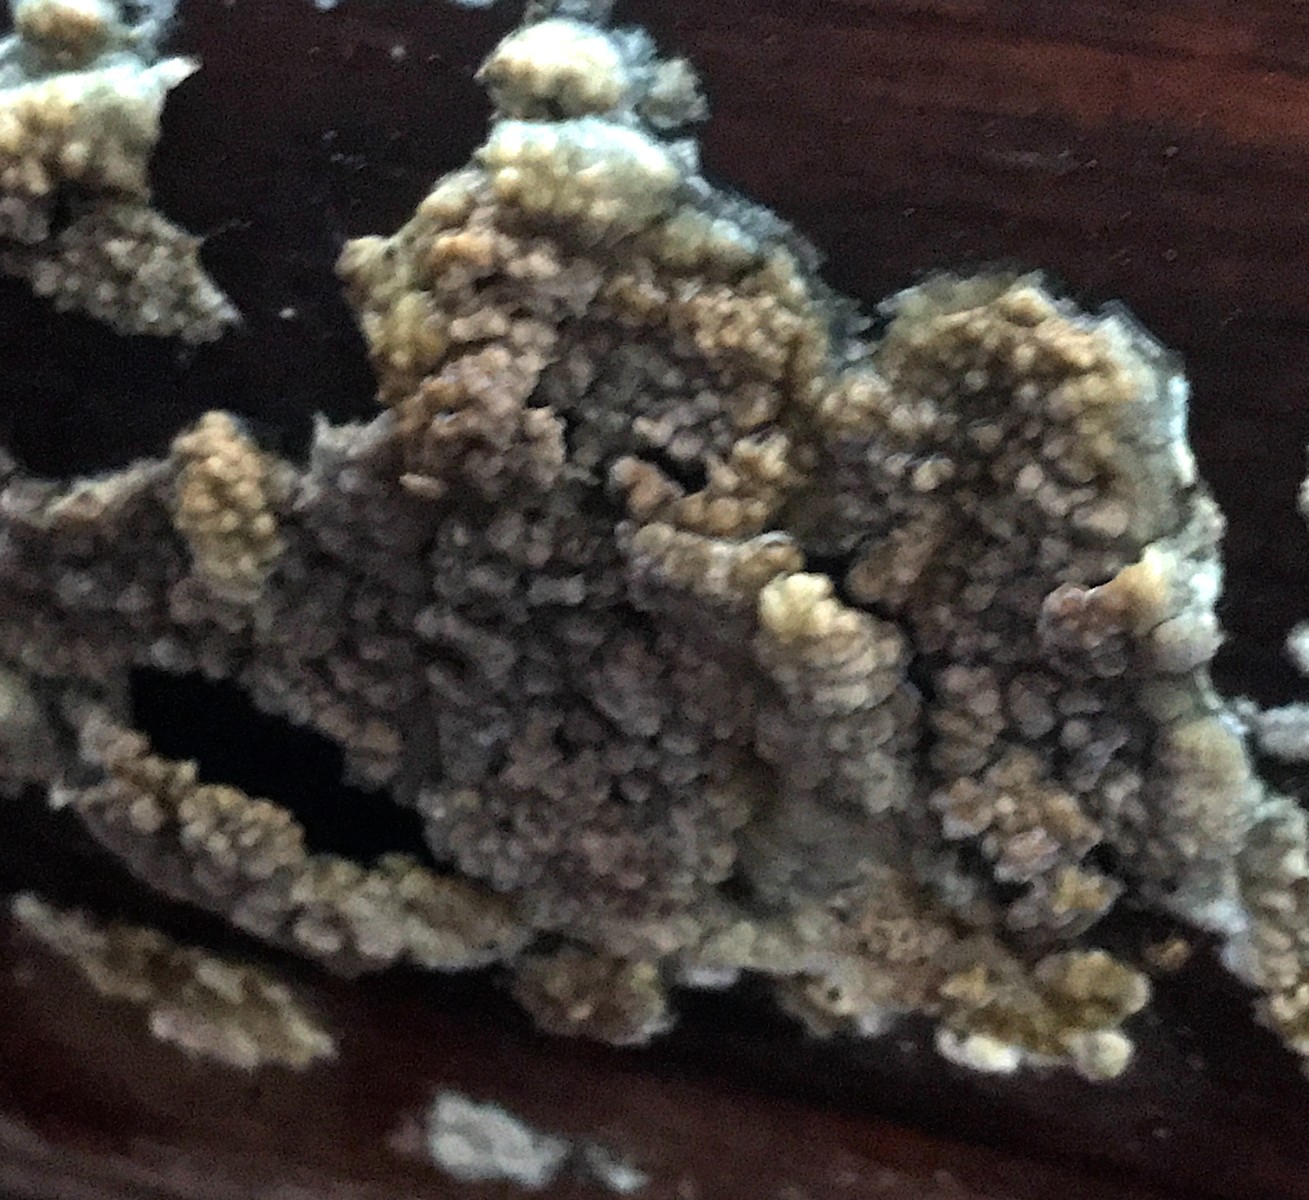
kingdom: Fungi
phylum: Basidiomycota
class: Agaricomycetes
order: Boletales
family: Coniophoraceae
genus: Coniophora
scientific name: Coniophora puteana
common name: gul tømmersvamp
